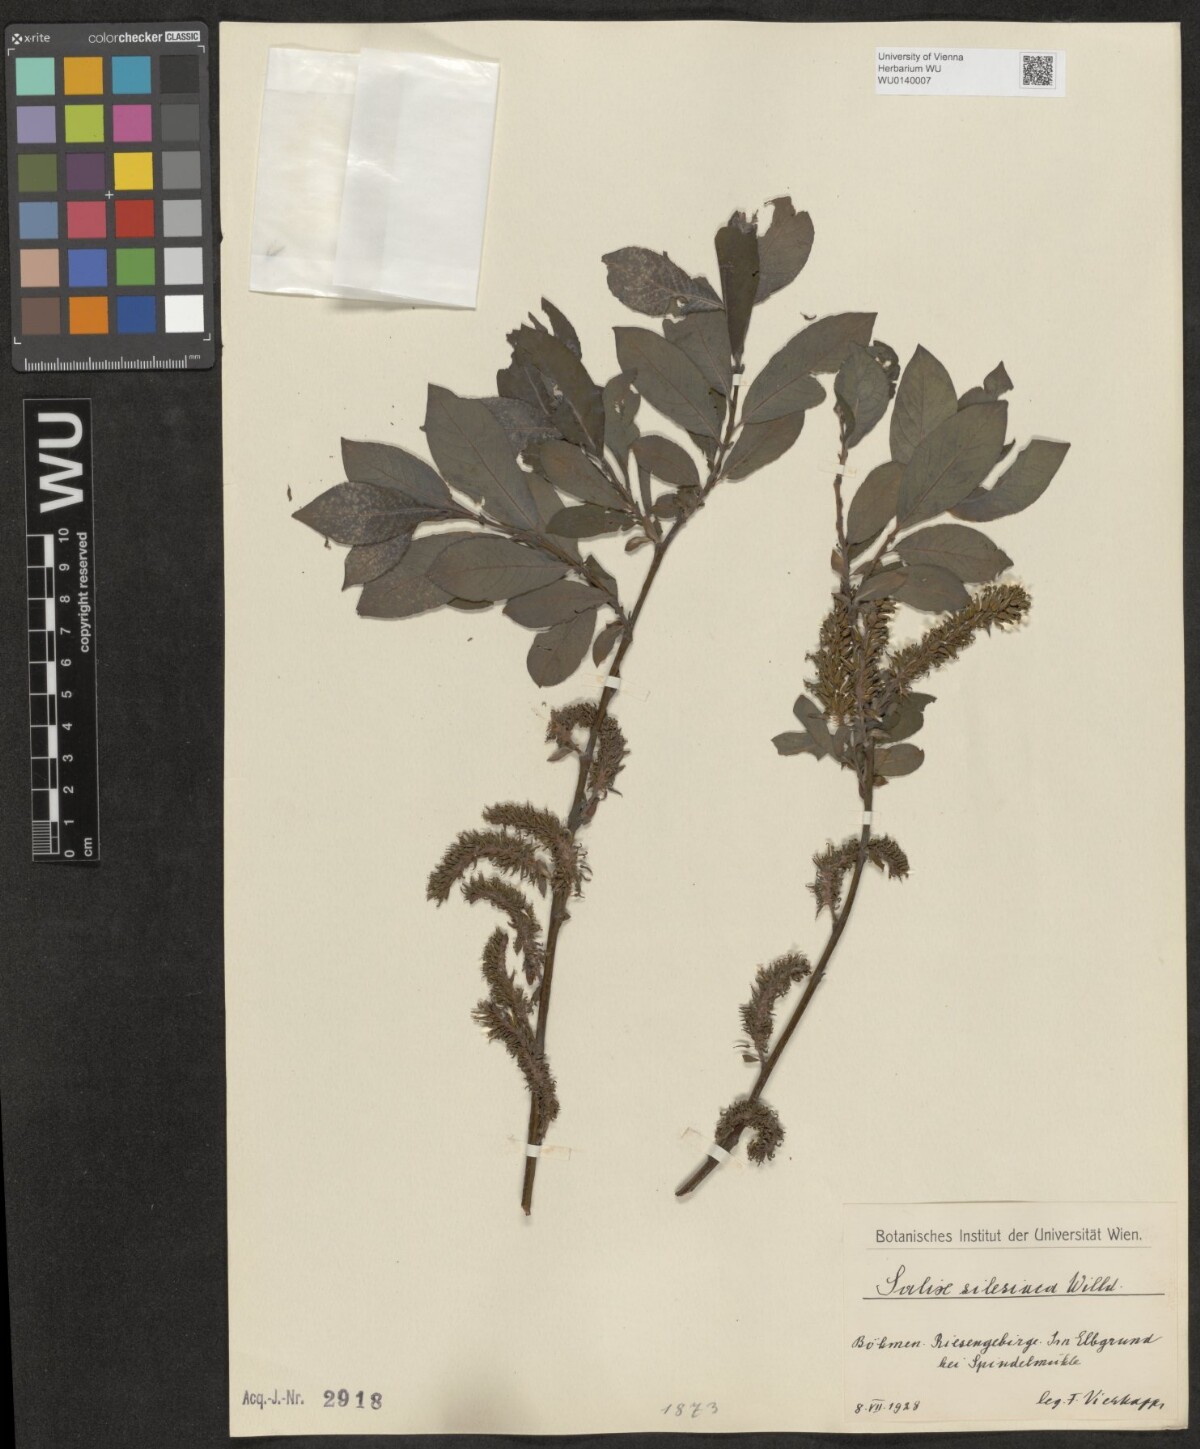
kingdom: Plantae
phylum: Tracheophyta
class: Magnoliopsida
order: Malpighiales
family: Salicaceae
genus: Salix
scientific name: Salix silesiaca
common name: Silesian willow
